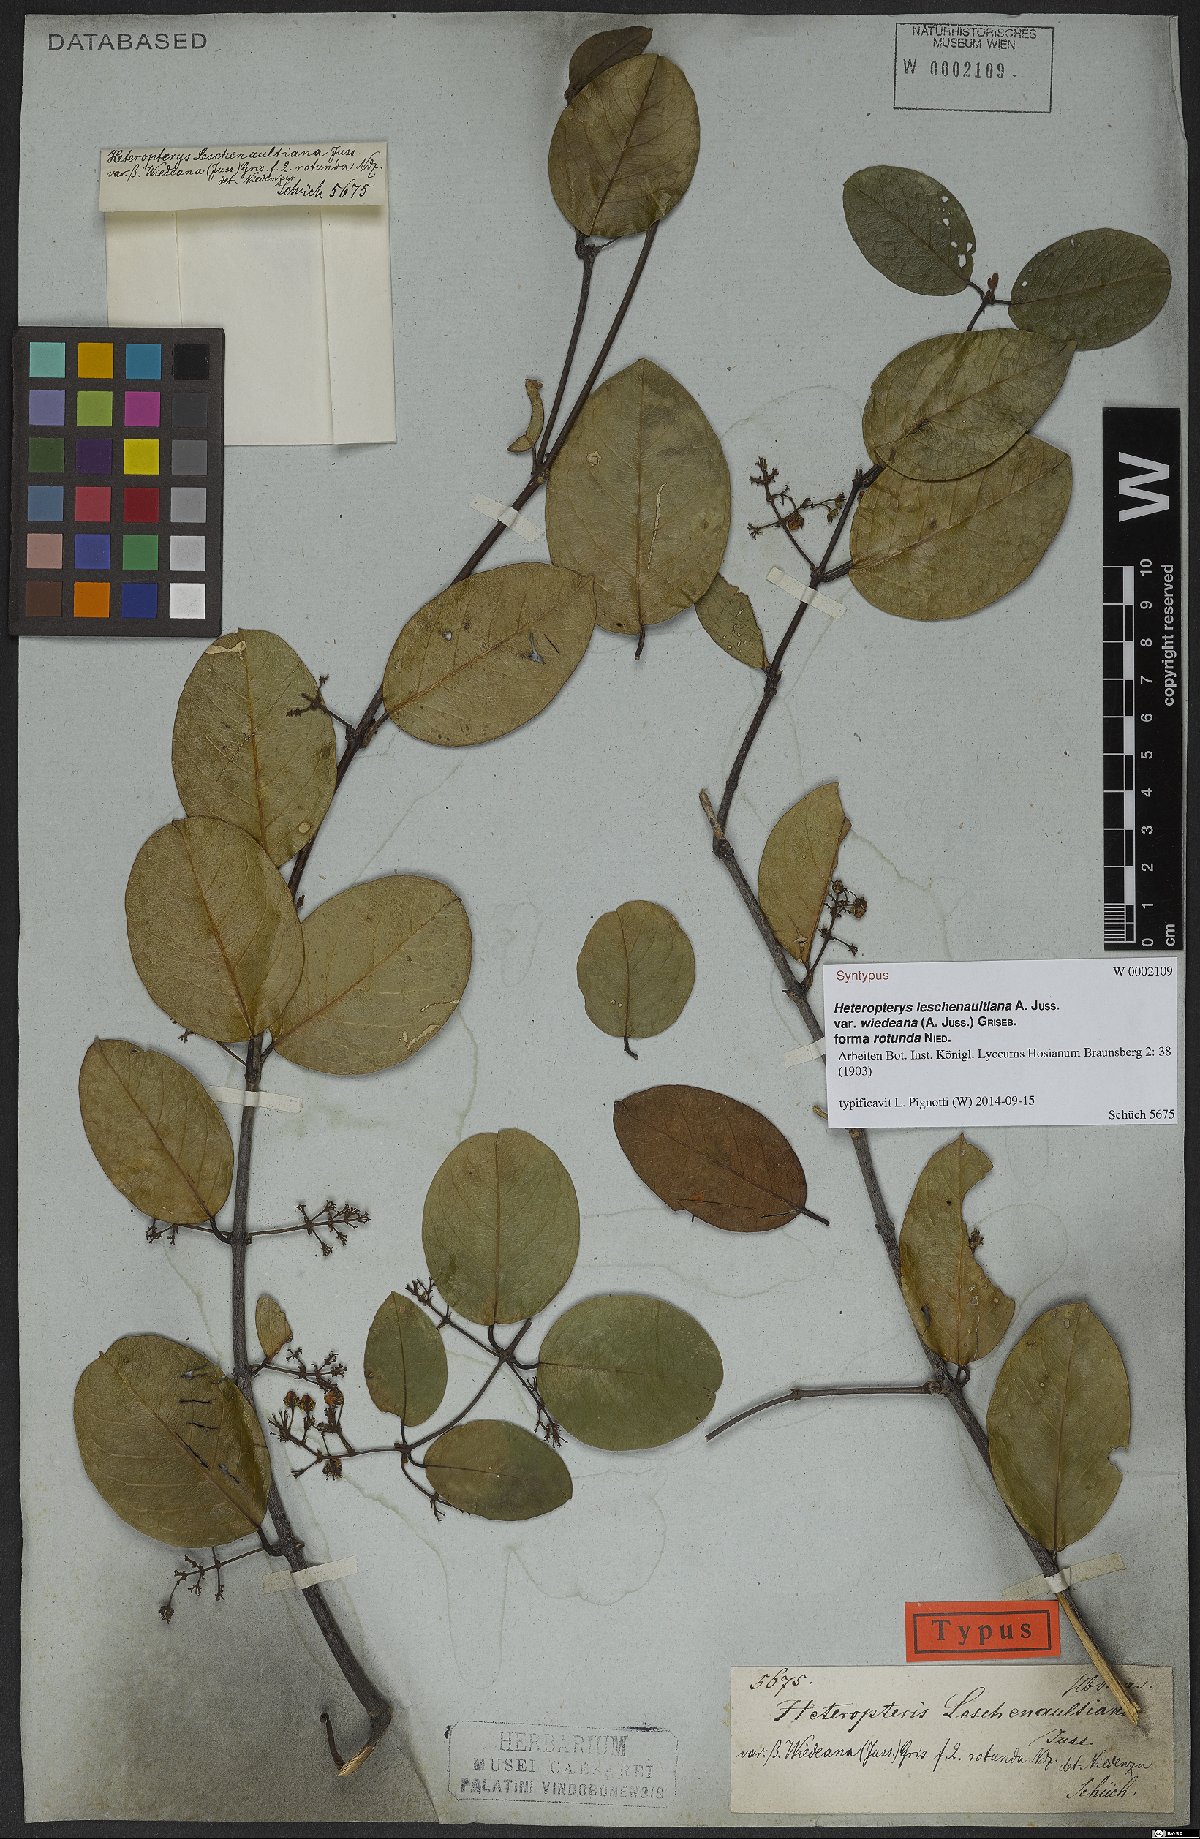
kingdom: Plantae
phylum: Tracheophyta
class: Magnoliopsida
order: Malpighiales
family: Malpighiaceae
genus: Heteropterys
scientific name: Heteropterys leschenaultiana
